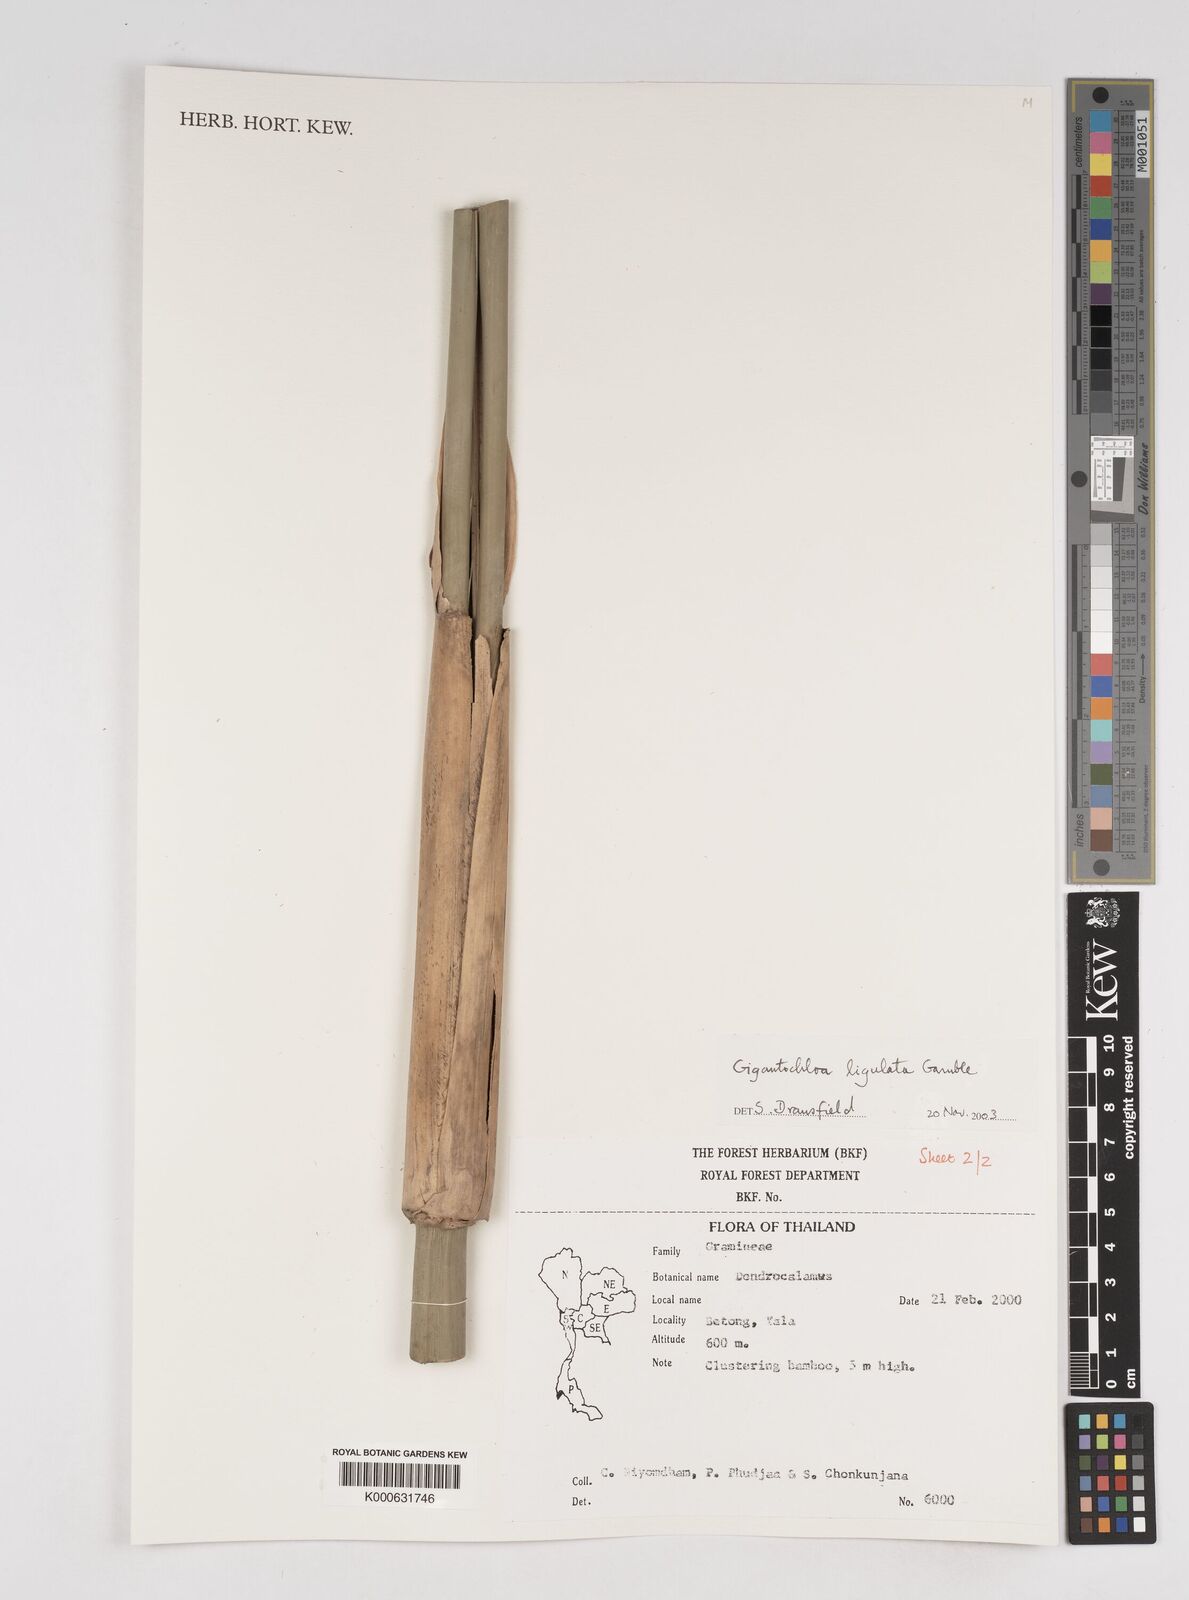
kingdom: Plantae
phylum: Tracheophyta
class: Liliopsida
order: Poales
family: Poaceae
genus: Gigantochloa
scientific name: Gigantochloa ligulata
